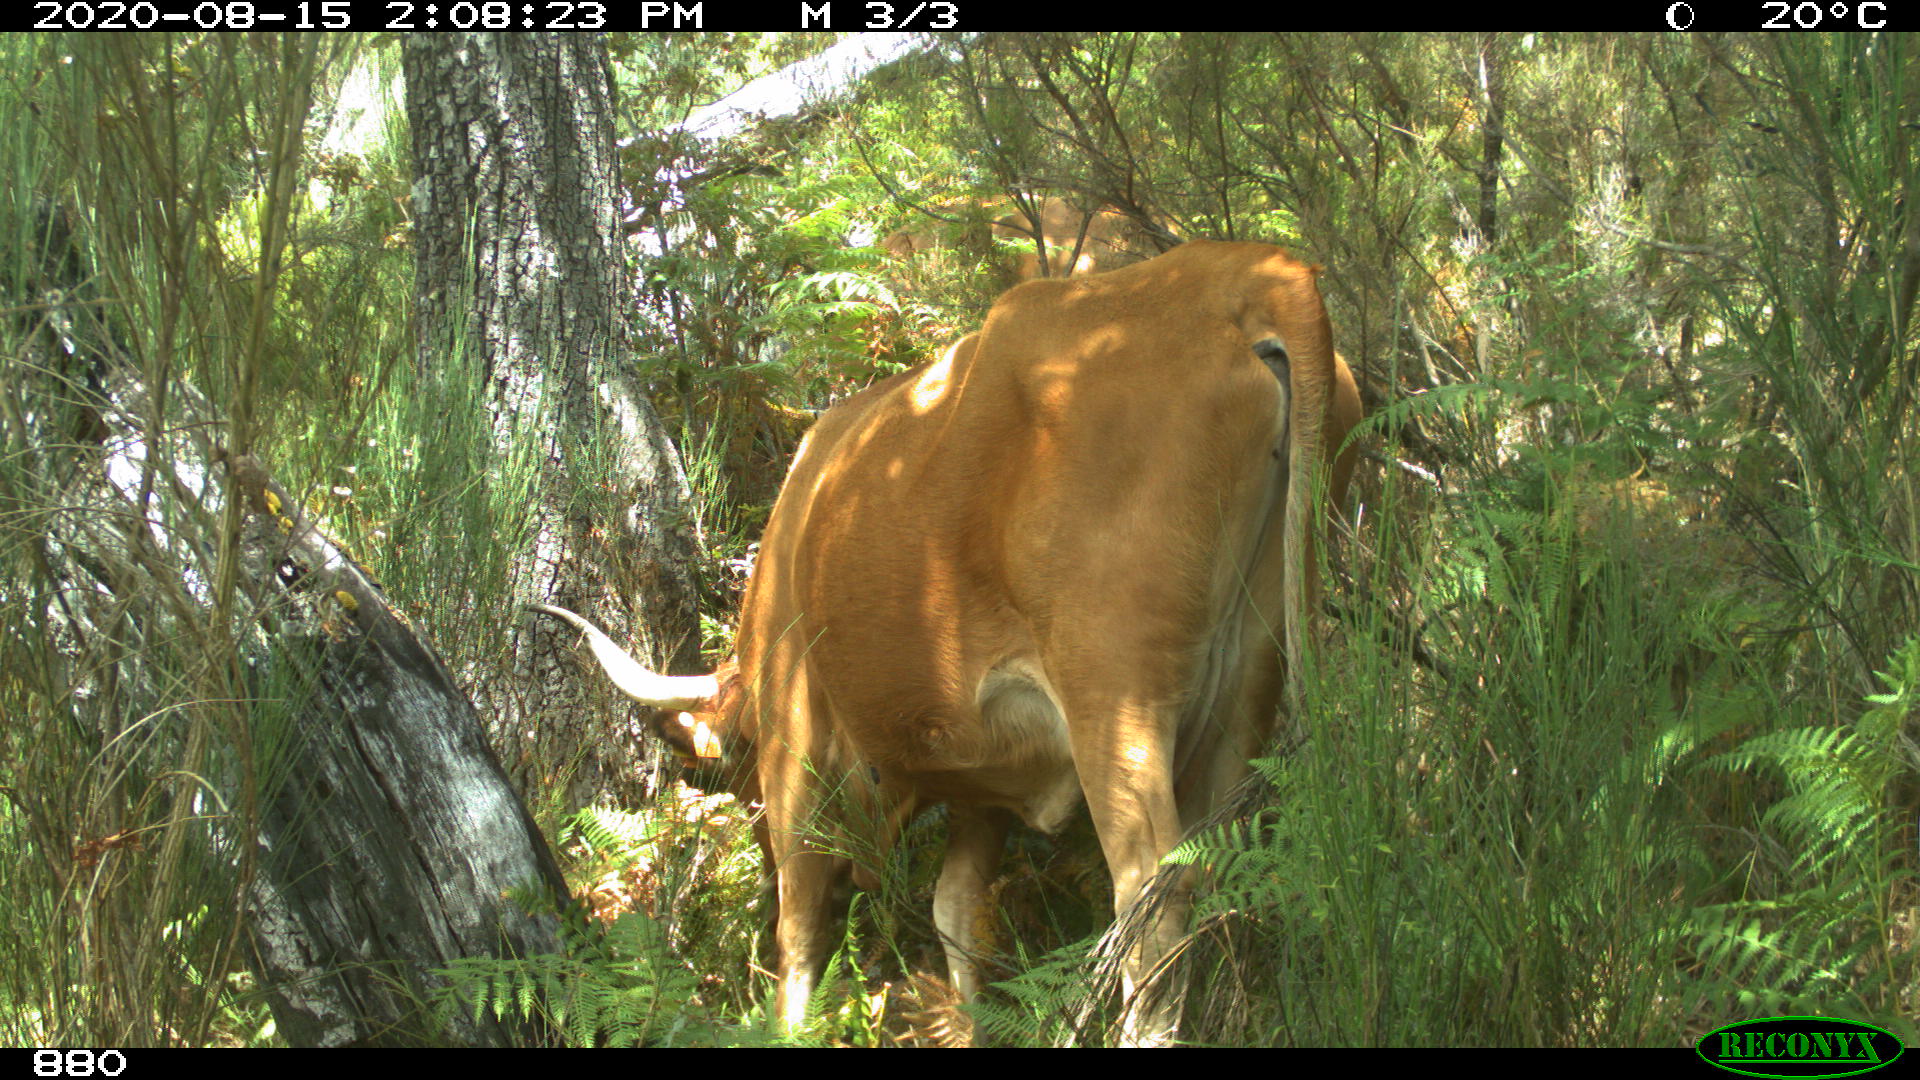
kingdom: Animalia
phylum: Chordata
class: Mammalia
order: Artiodactyla
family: Bovidae
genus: Bos
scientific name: Bos taurus
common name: Domesticated cattle
